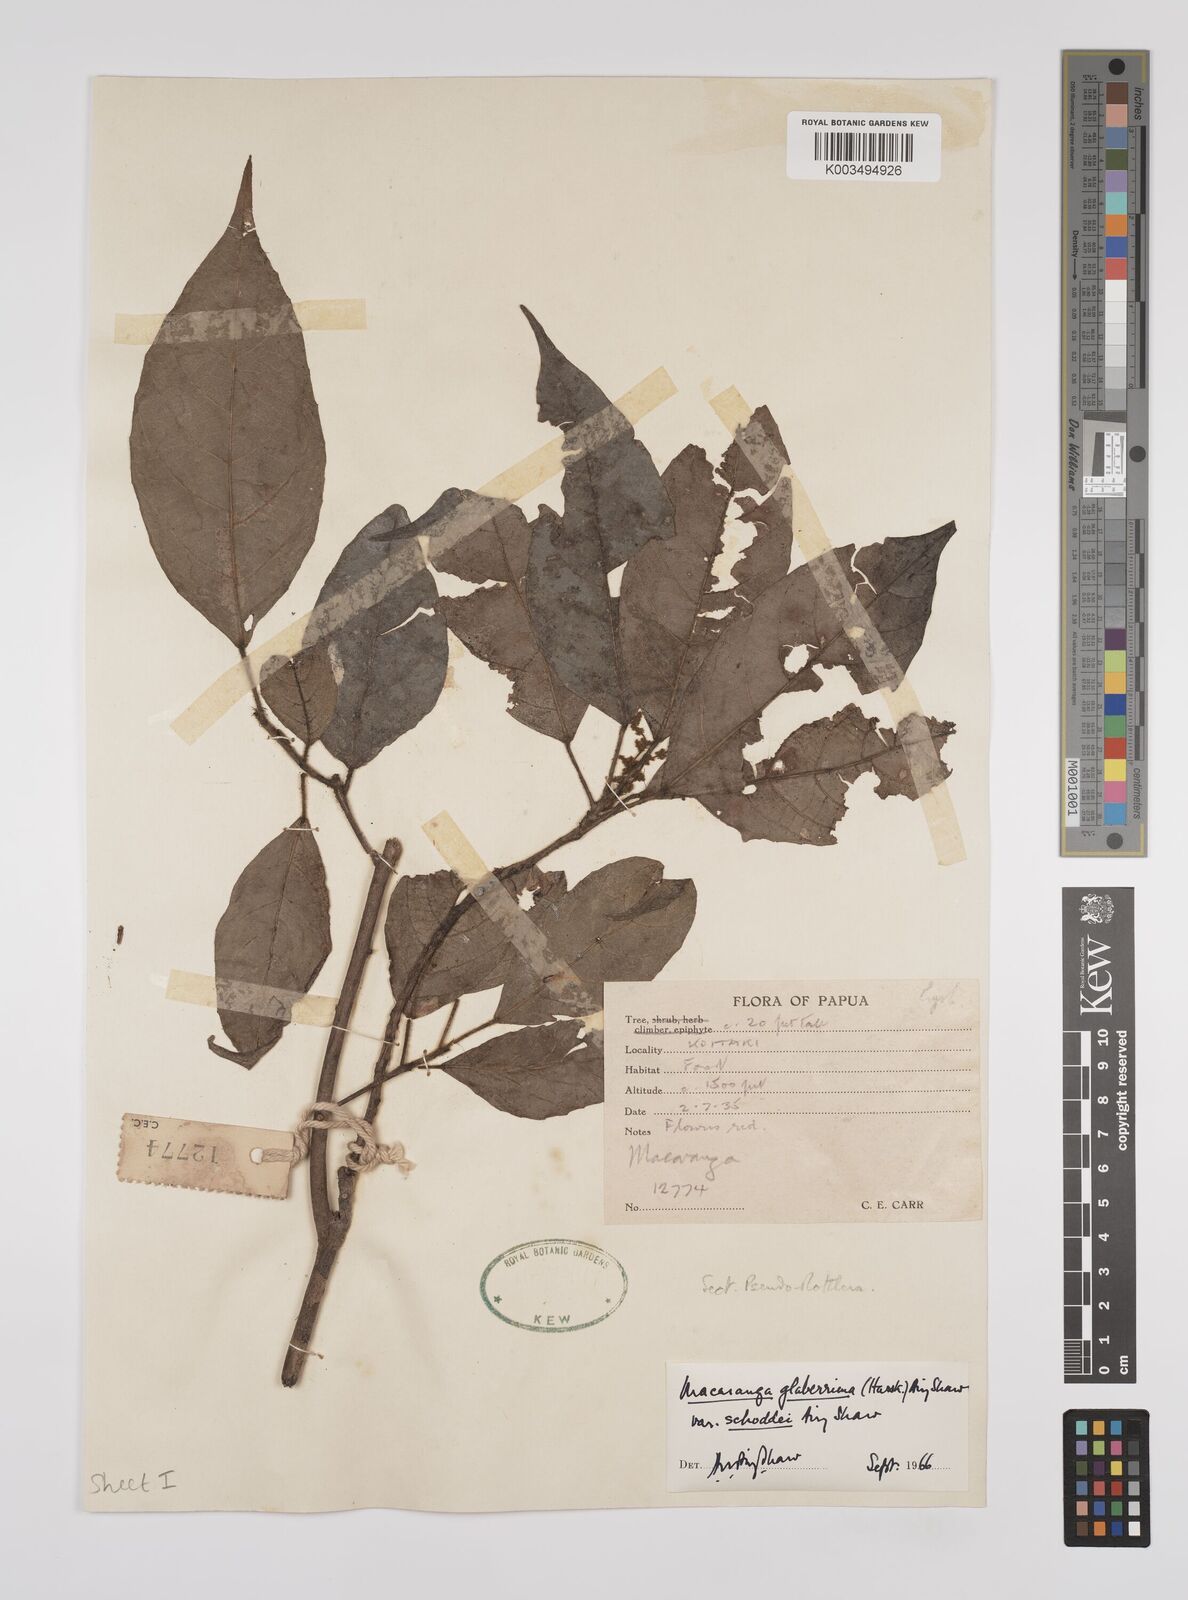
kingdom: Plantae
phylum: Tracheophyta
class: Magnoliopsida
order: Malpighiales
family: Euphorbiaceae
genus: Macaranga
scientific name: Macaranga glaberrima
